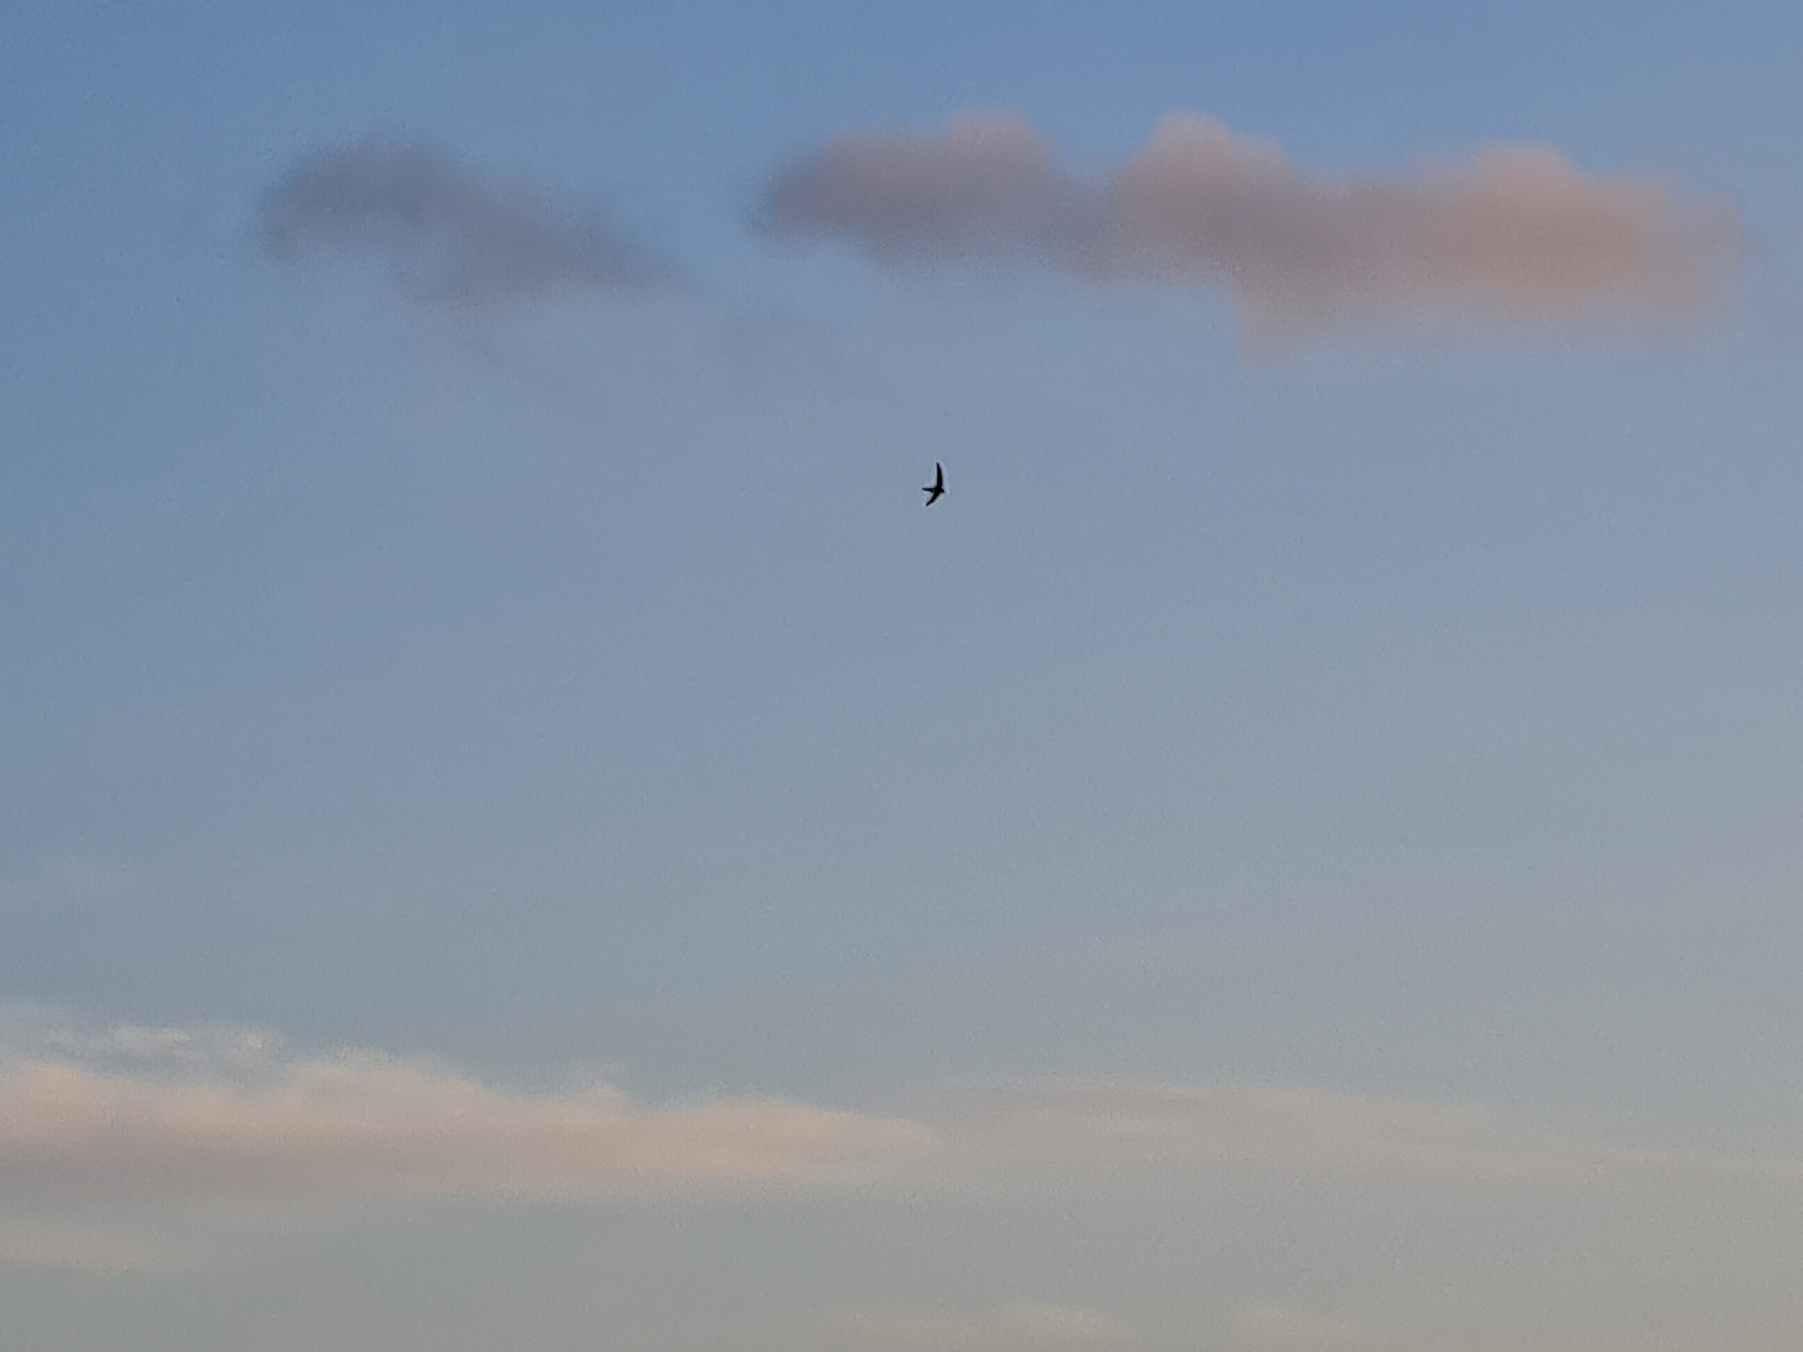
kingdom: Animalia
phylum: Chordata
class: Aves
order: Apodiformes
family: Apodidae
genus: Apus
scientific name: Apus apus
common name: Mursejler
